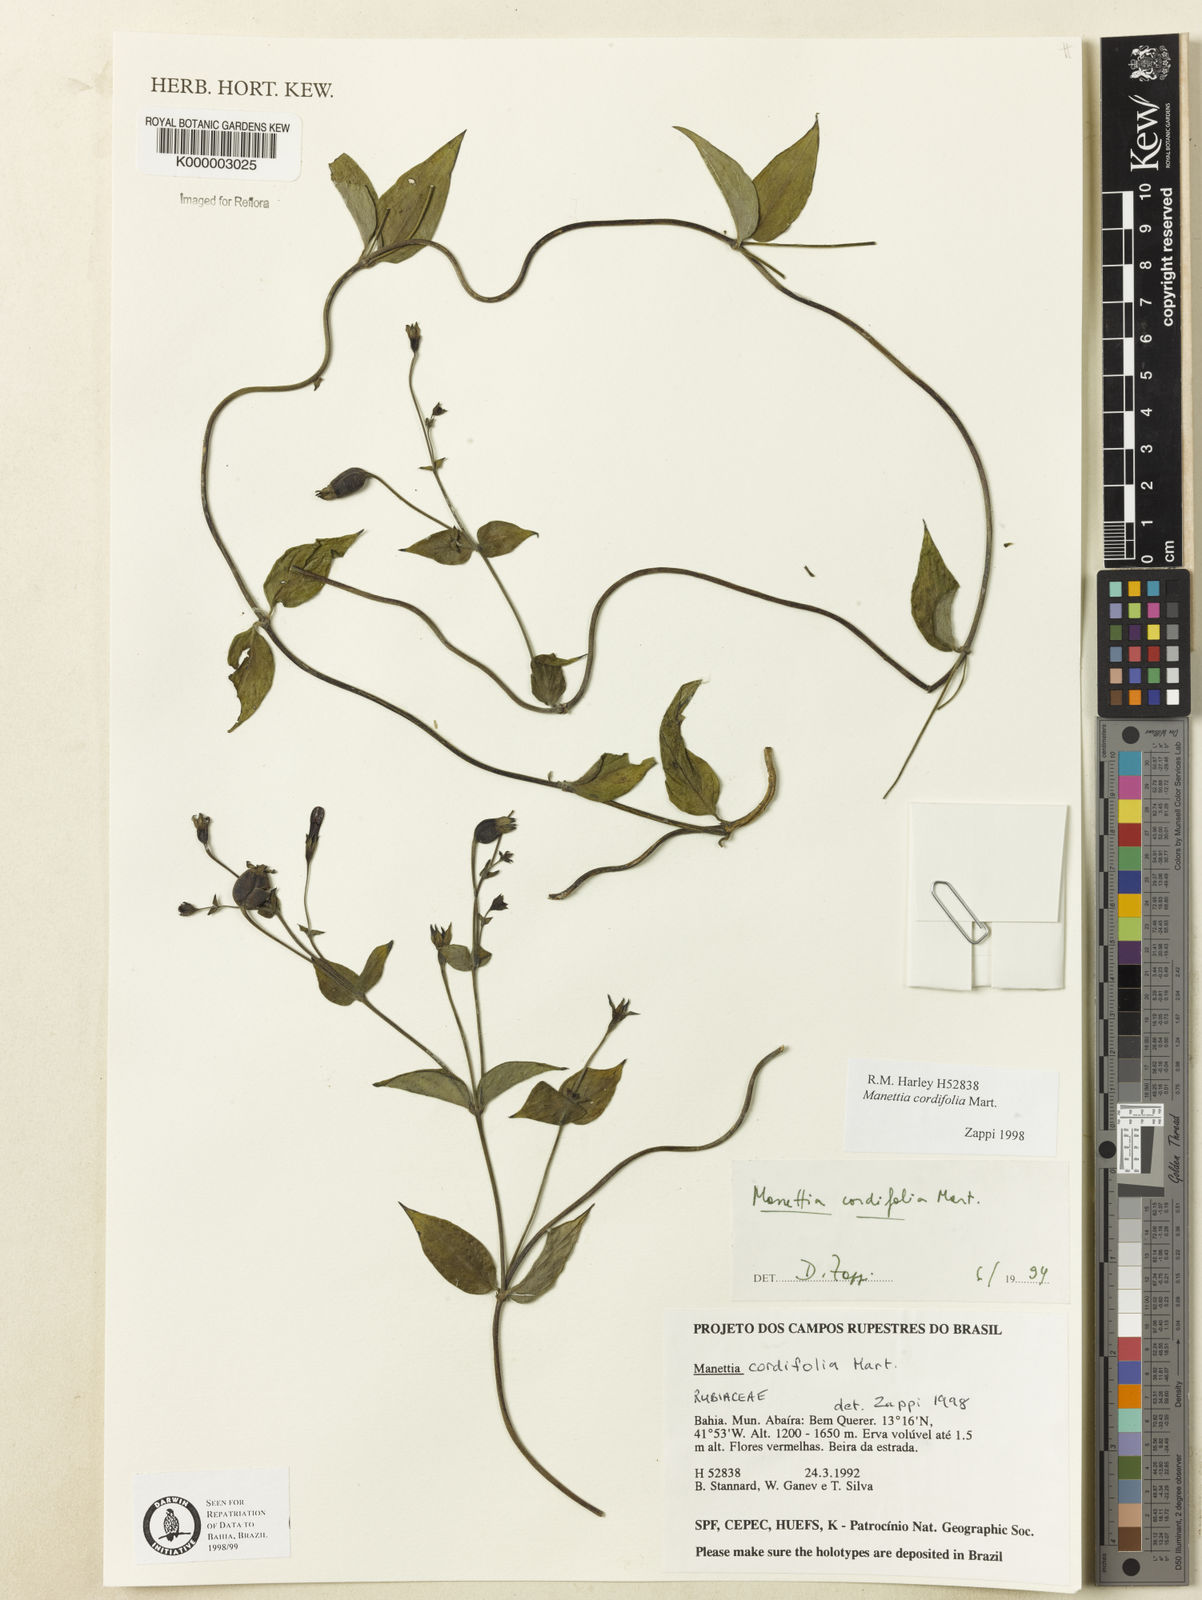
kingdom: Plantae
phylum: Tracheophyta
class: Magnoliopsida
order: Gentianales
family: Rubiaceae
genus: Manettia
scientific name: Manettia cordifolia
